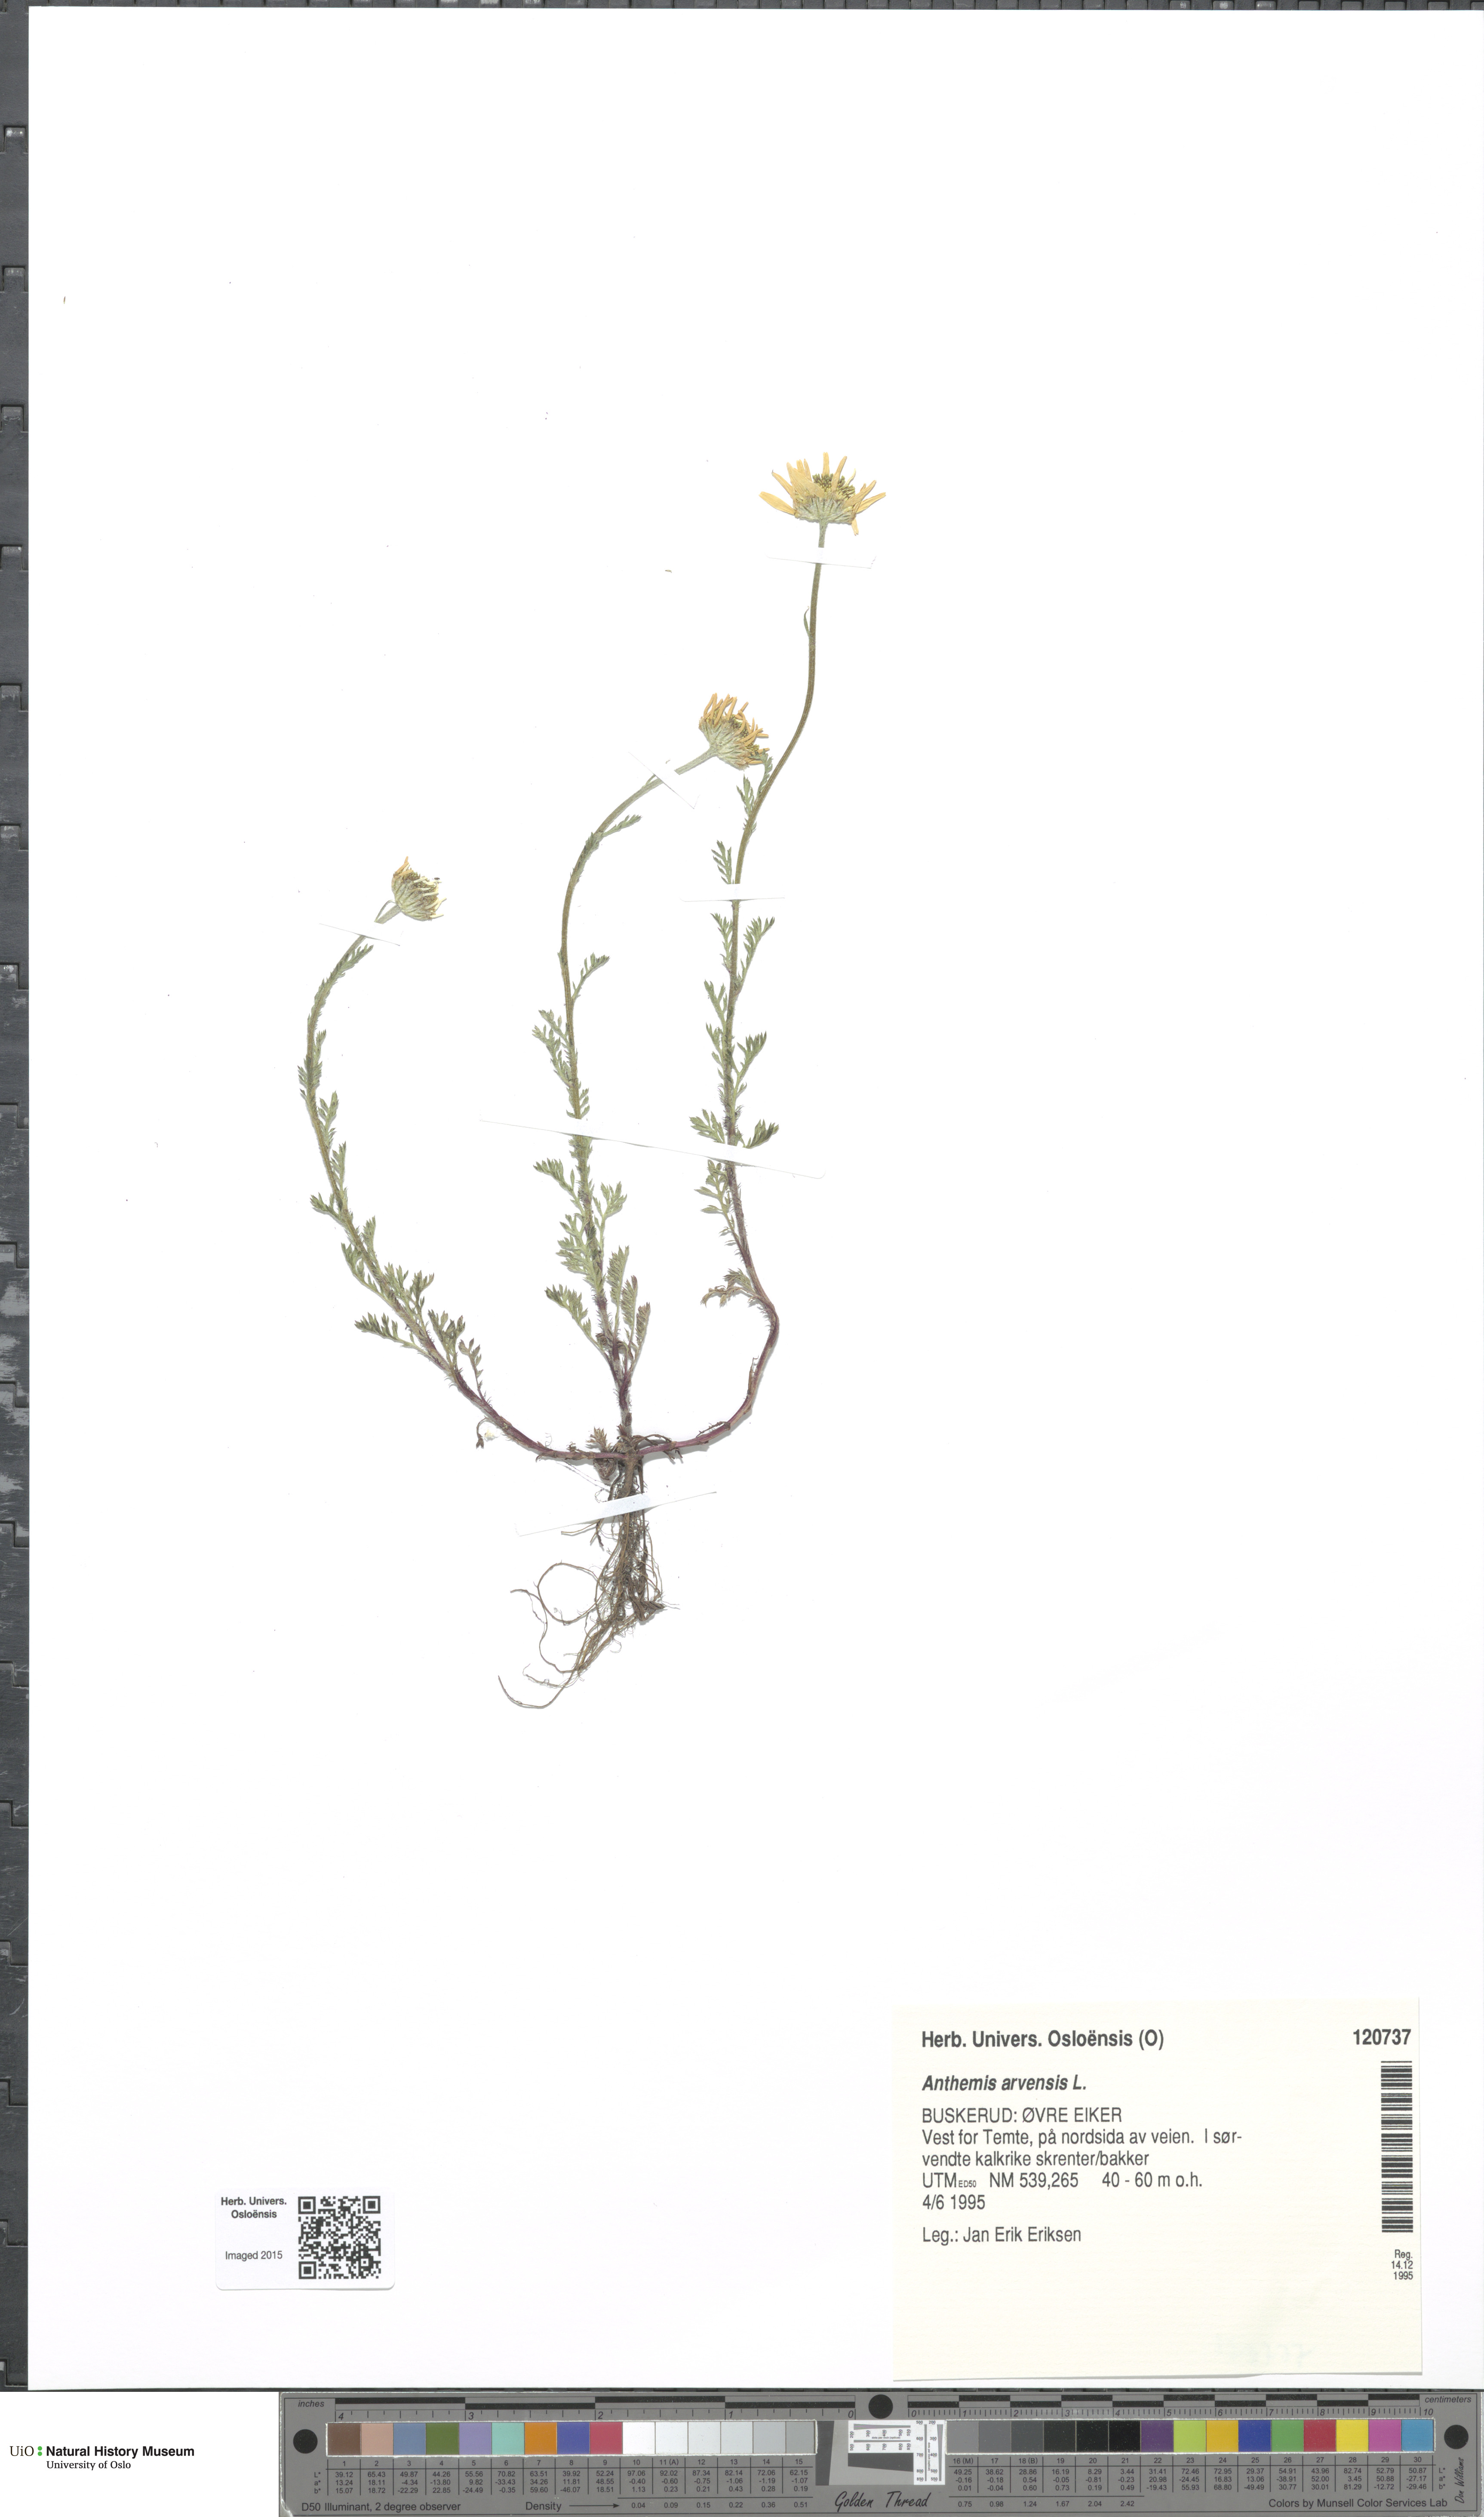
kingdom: Plantae
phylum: Tracheophyta
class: Magnoliopsida
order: Asterales
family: Asteraceae
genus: Anthemis
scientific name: Anthemis arvensis
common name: Corn chamomile
